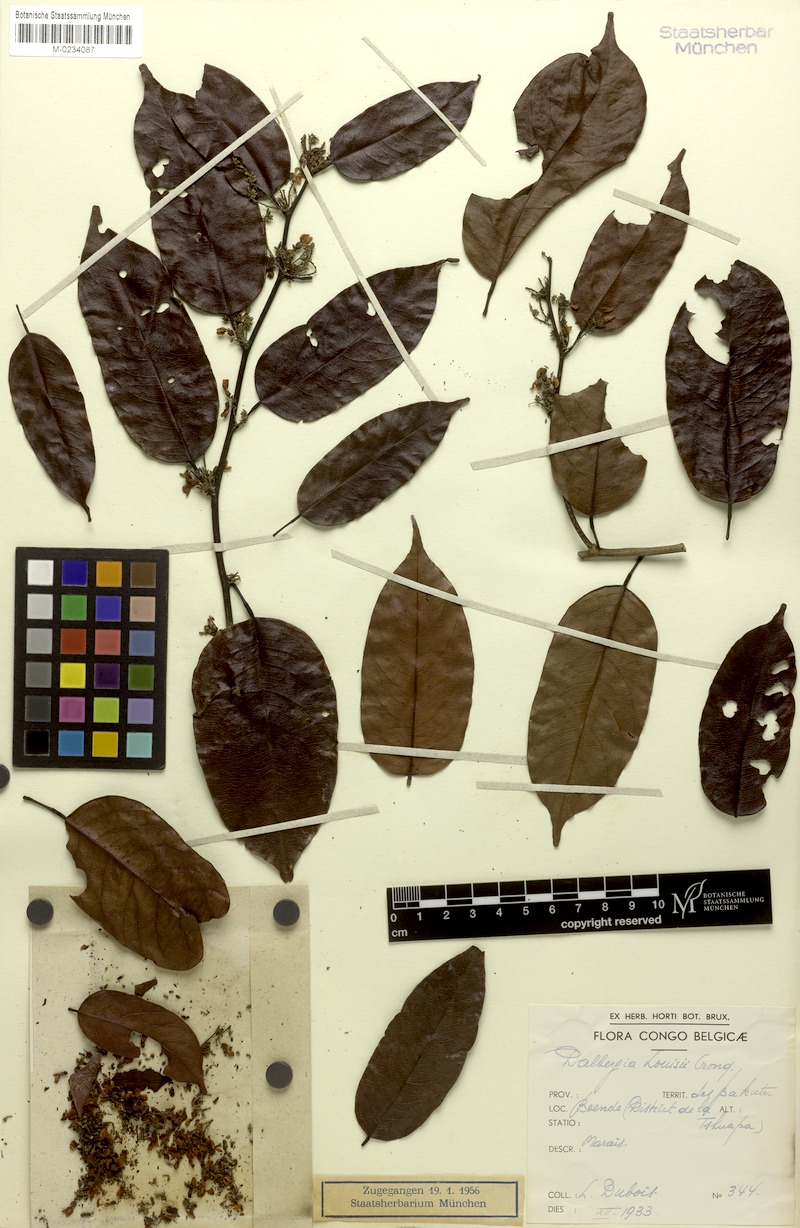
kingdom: Plantae
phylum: Tracheophyta
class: Magnoliopsida
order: Fabales
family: Fabaceae
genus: Dalbergia
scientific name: Dalbergia louisii
